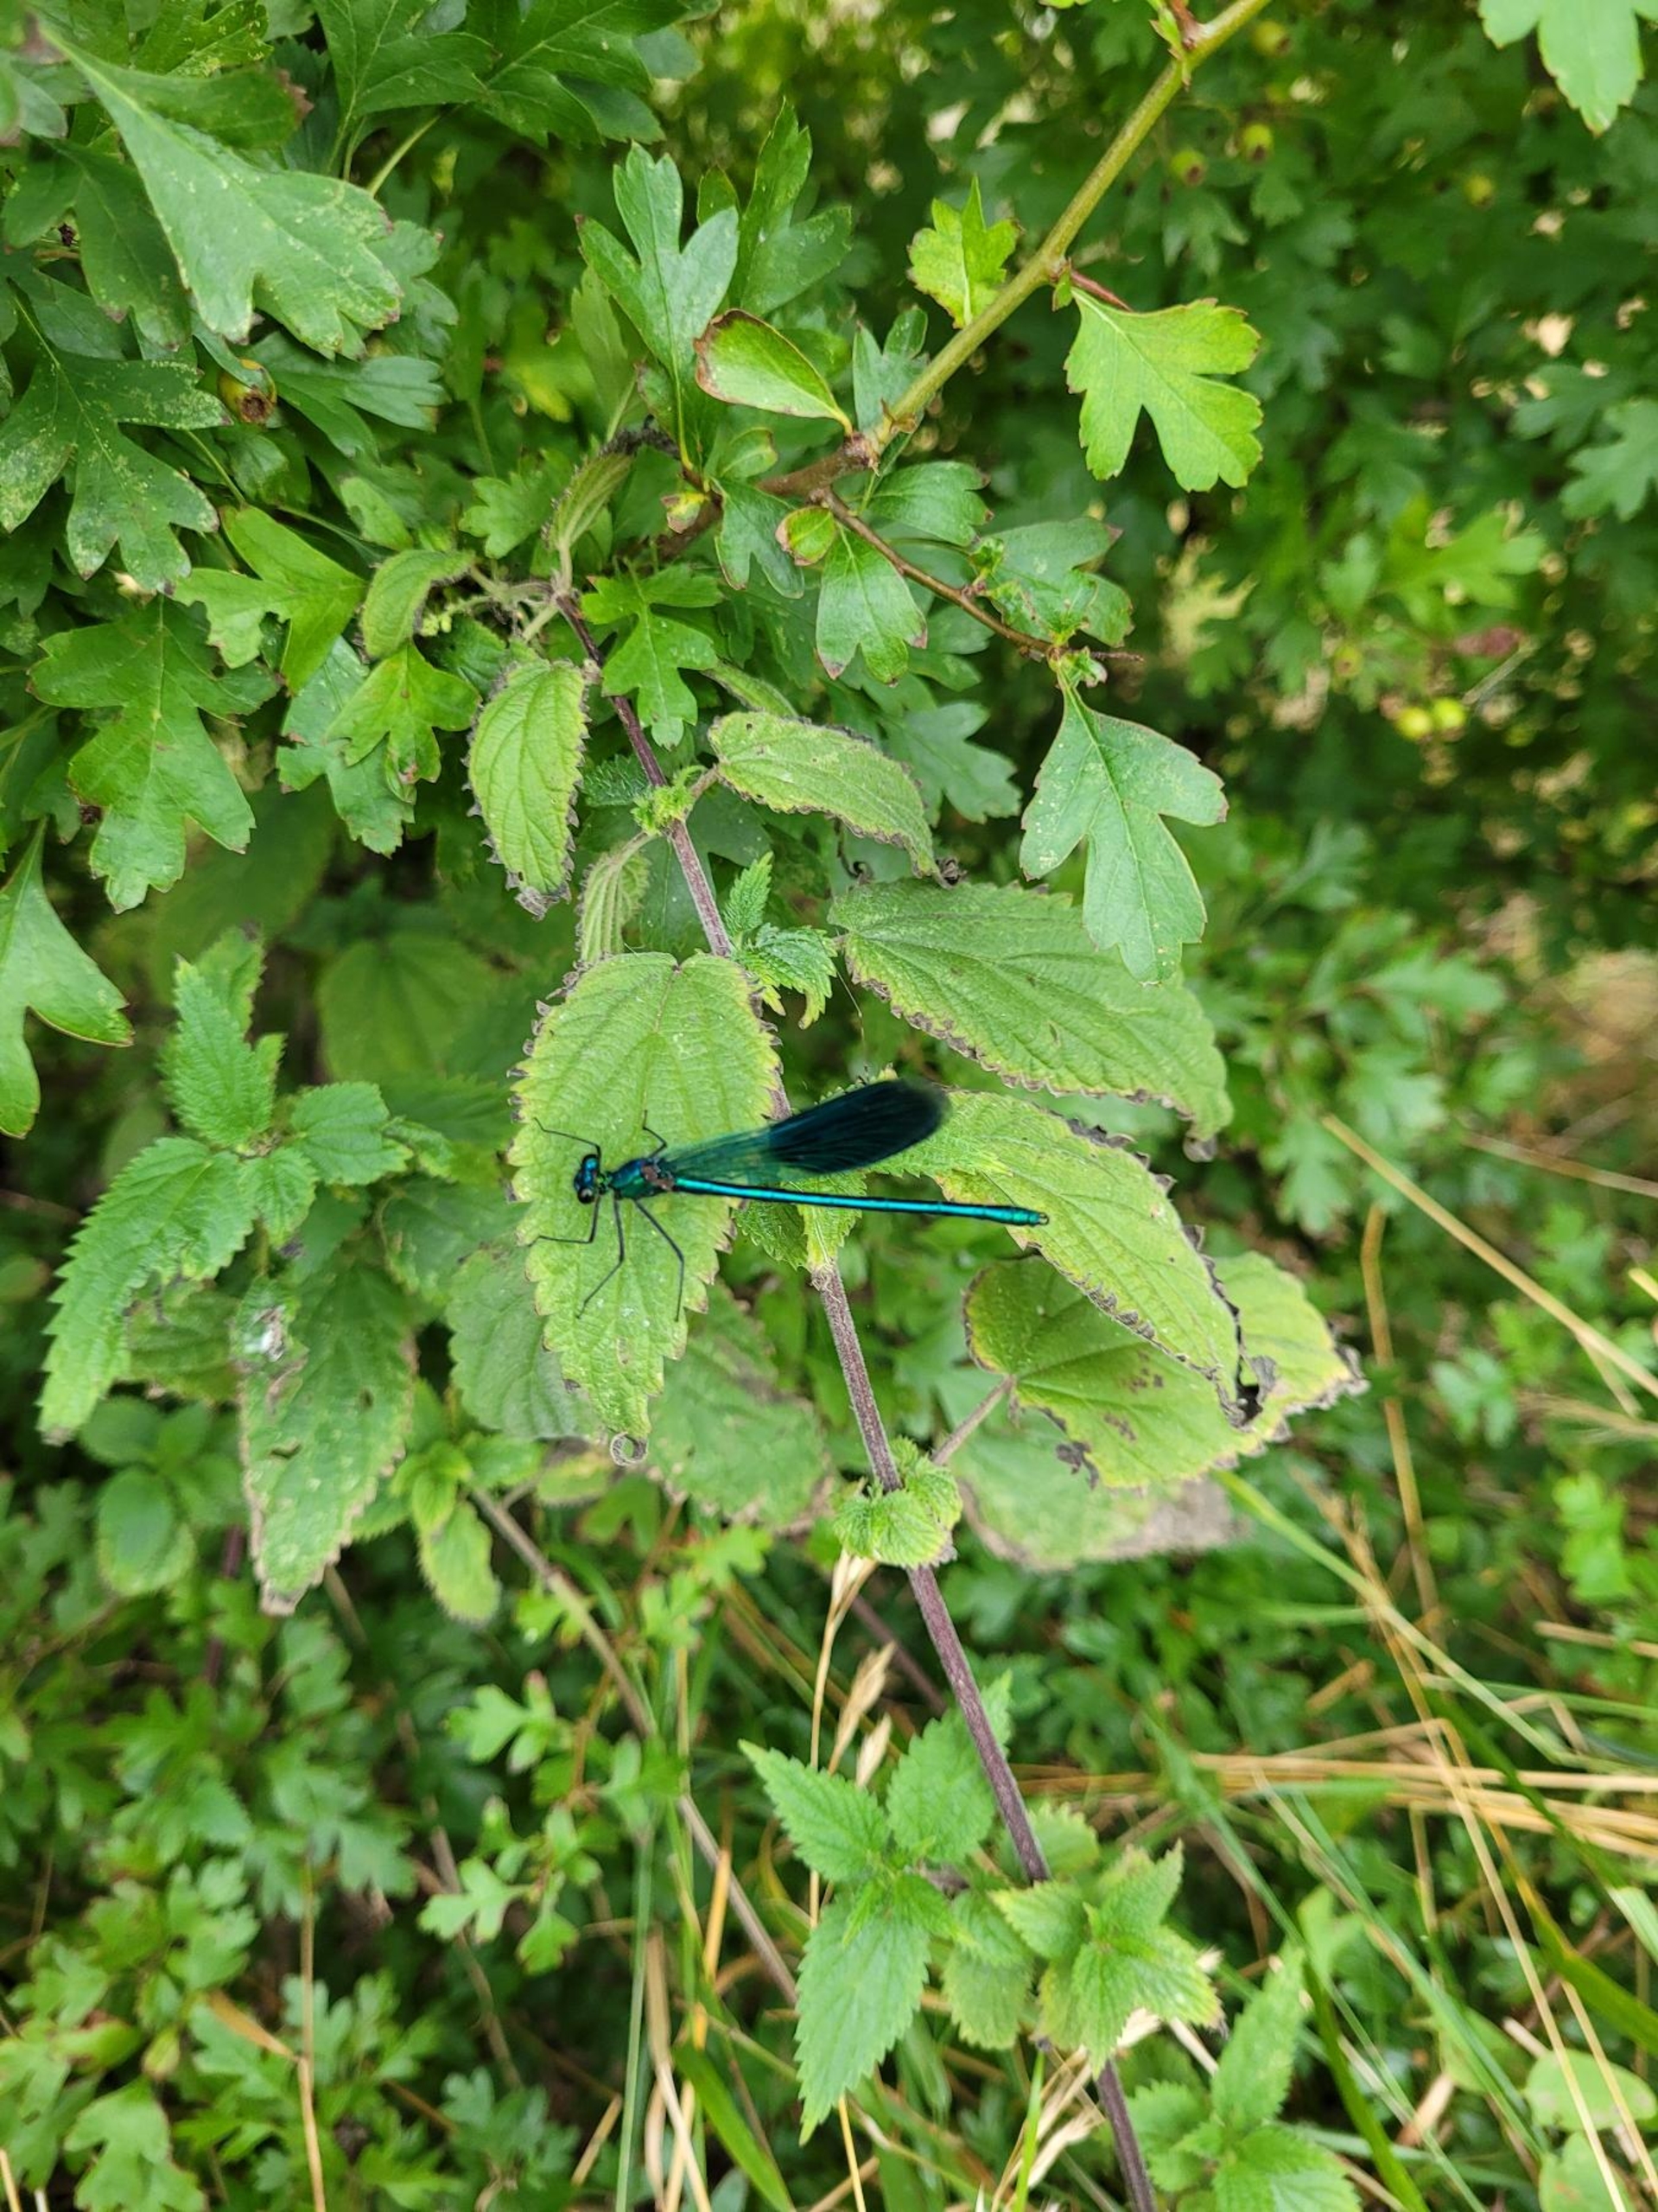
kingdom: Animalia
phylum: Arthropoda
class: Insecta
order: Odonata
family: Calopterygidae
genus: Calopteryx
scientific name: Calopteryx splendens
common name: Blåbåndet pragtvandnymfe
